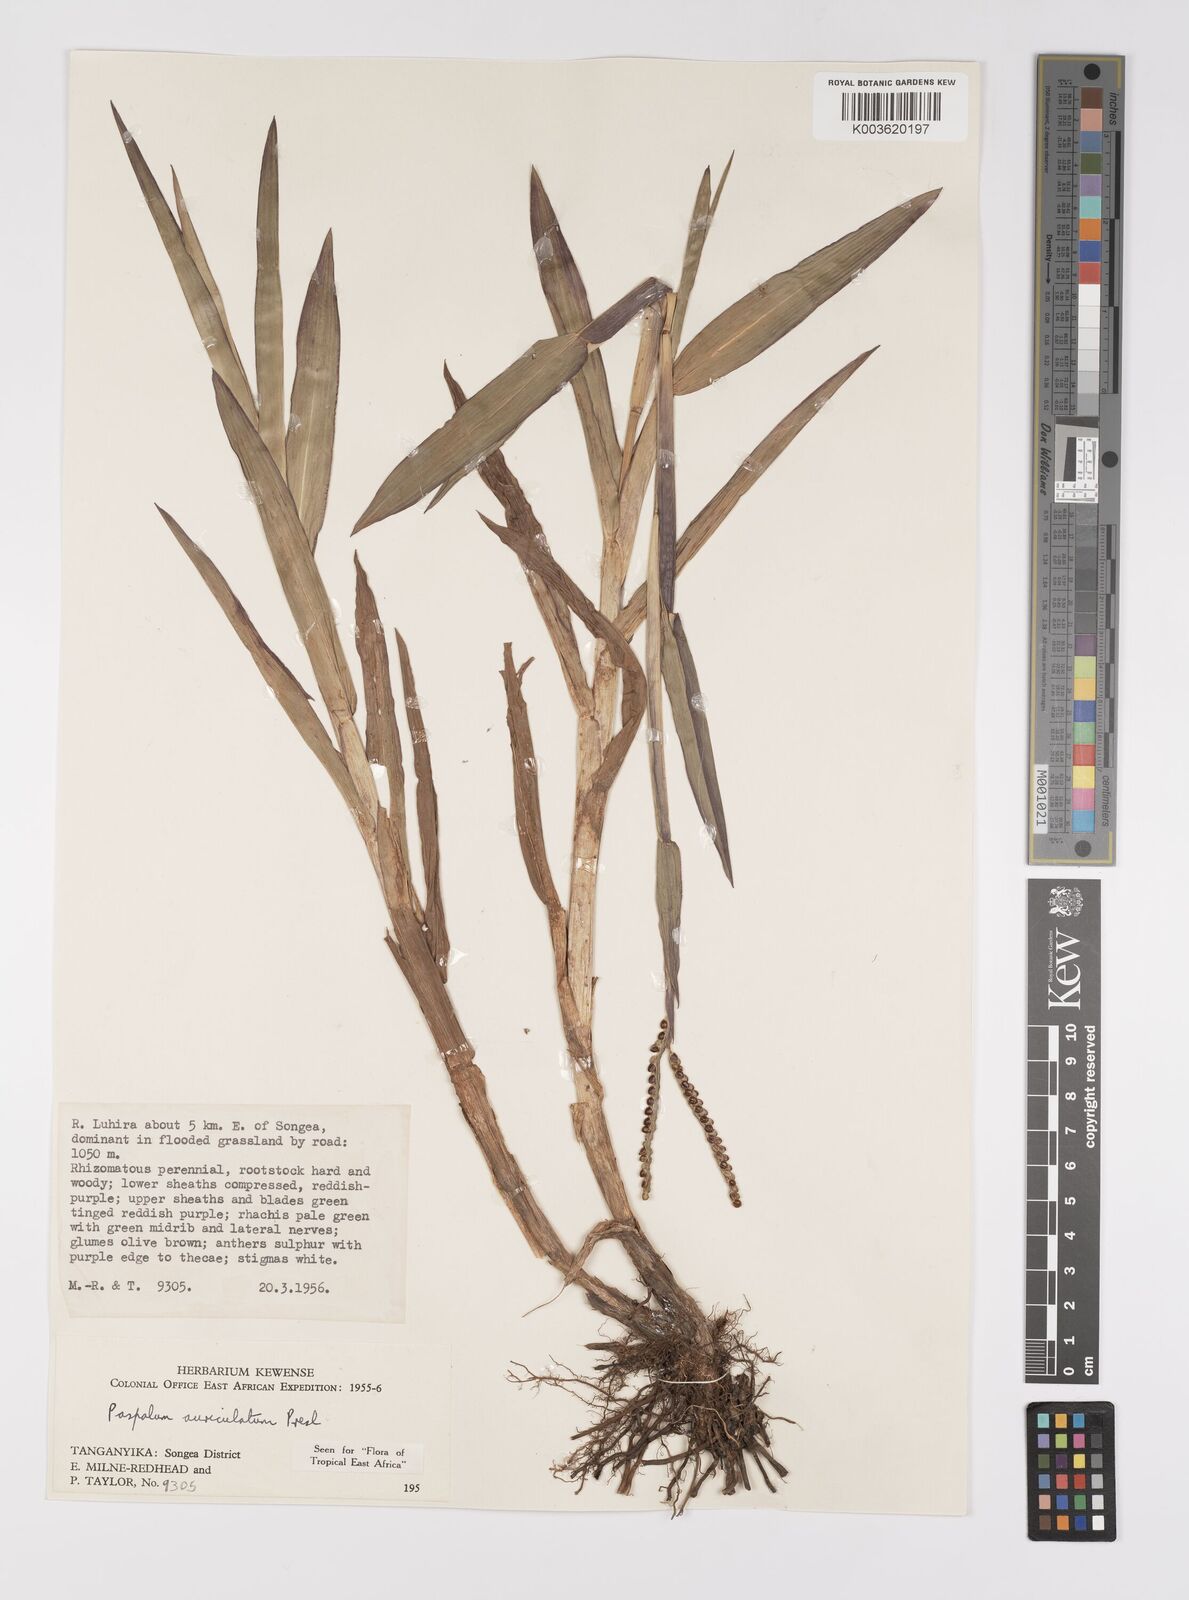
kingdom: Plantae
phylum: Tracheophyta
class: Liliopsida
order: Poales
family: Poaceae
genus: Paspalum
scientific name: Paspalum lamprocaryon
